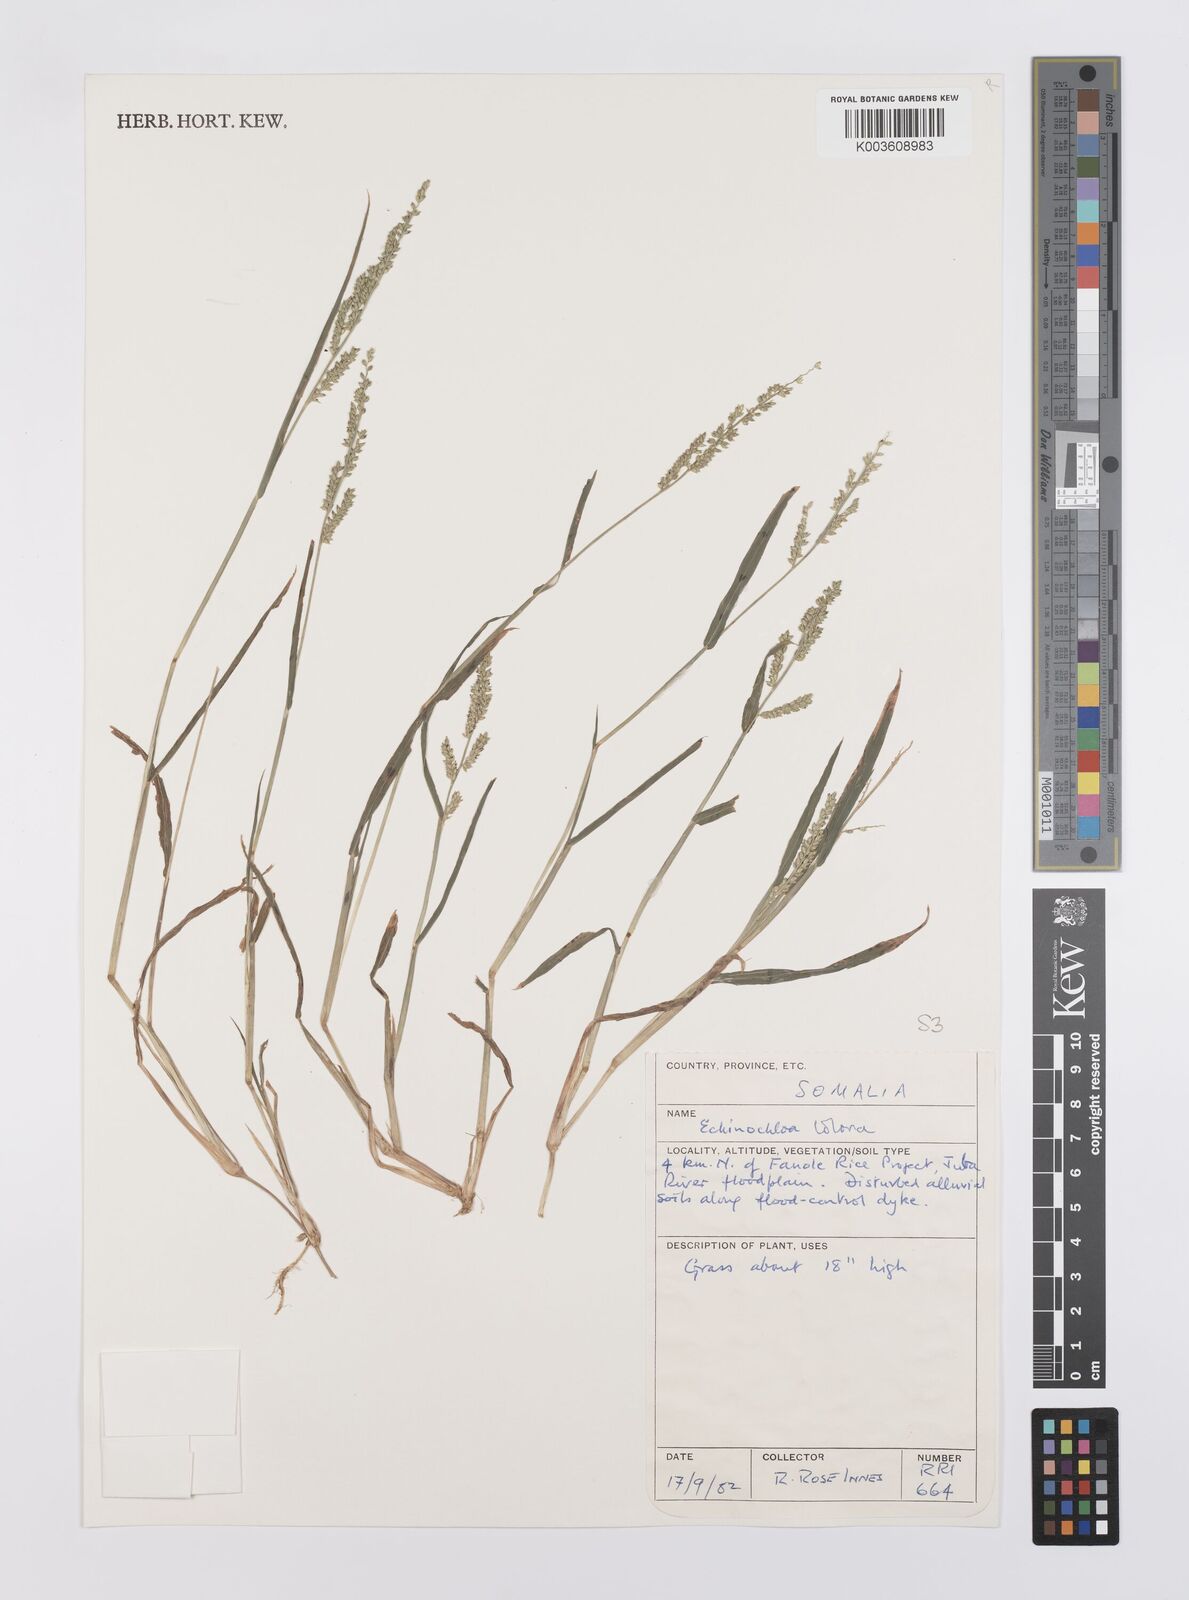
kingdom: Plantae
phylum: Tracheophyta
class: Liliopsida
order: Poales
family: Poaceae
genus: Echinochloa
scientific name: Echinochloa colonum
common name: Jungle rice
